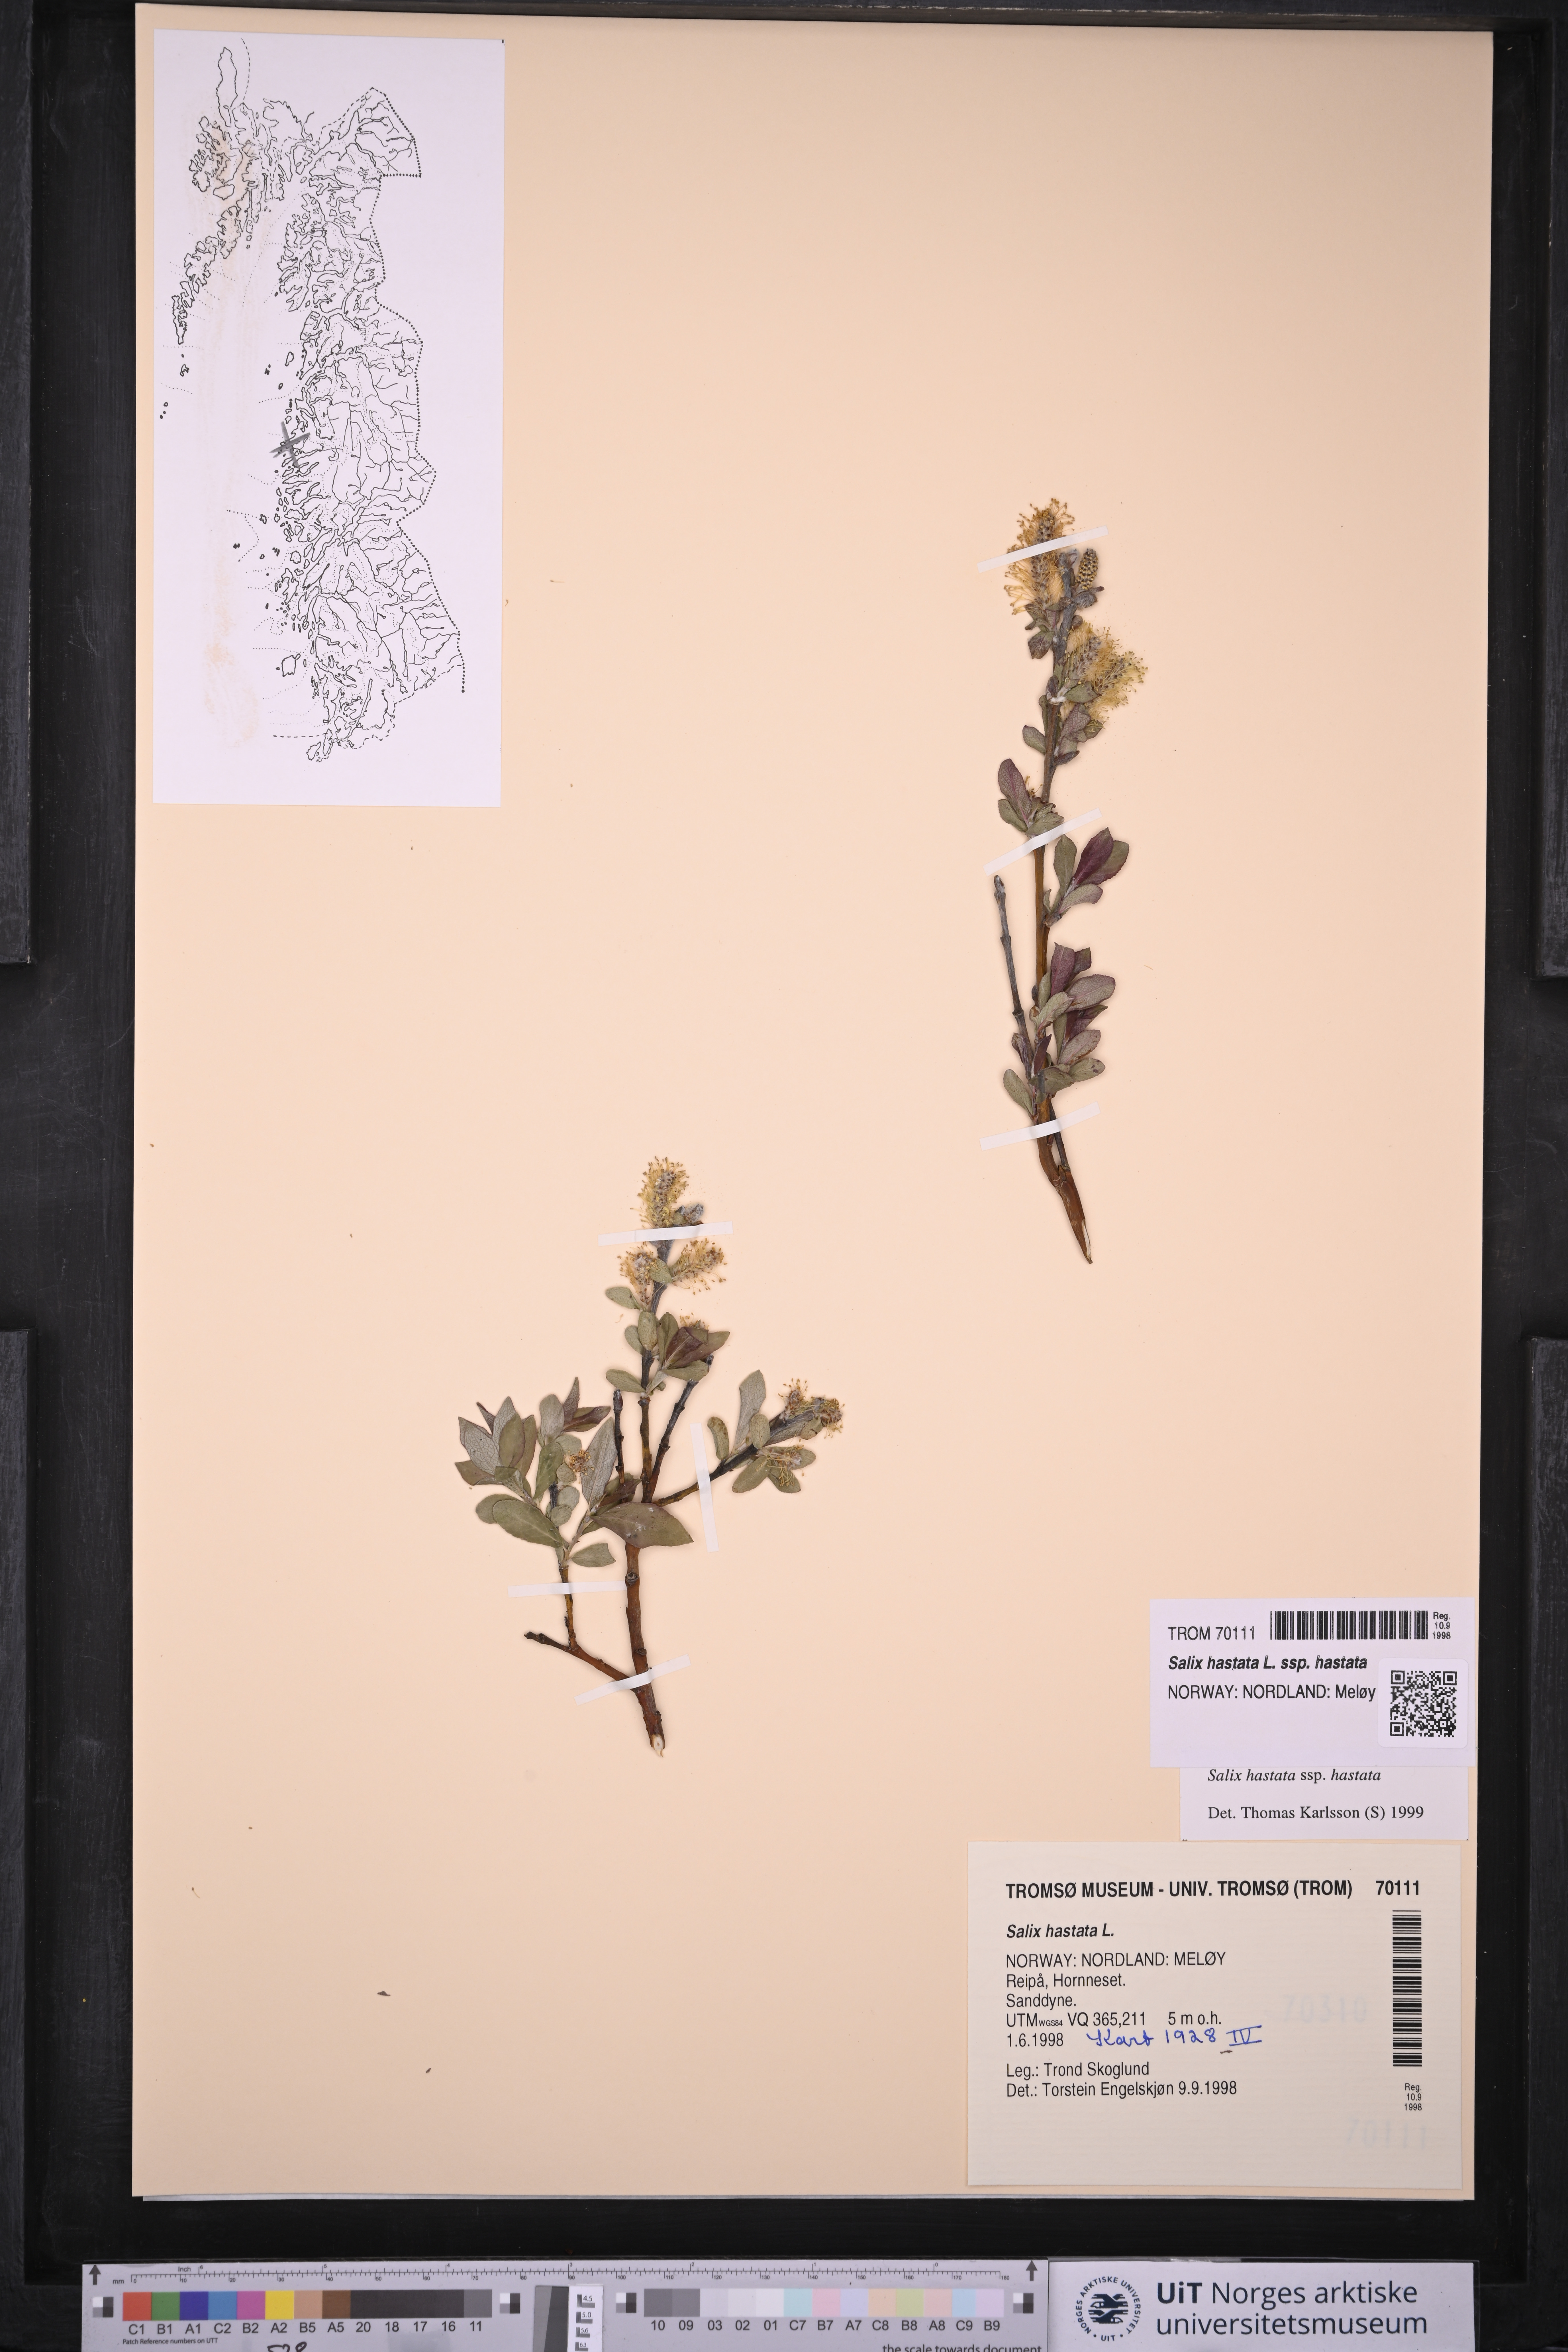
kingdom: Plantae
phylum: Tracheophyta
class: Magnoliopsida
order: Malpighiales
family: Salicaceae
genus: Salix
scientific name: Salix hastata
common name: Halberd willow
